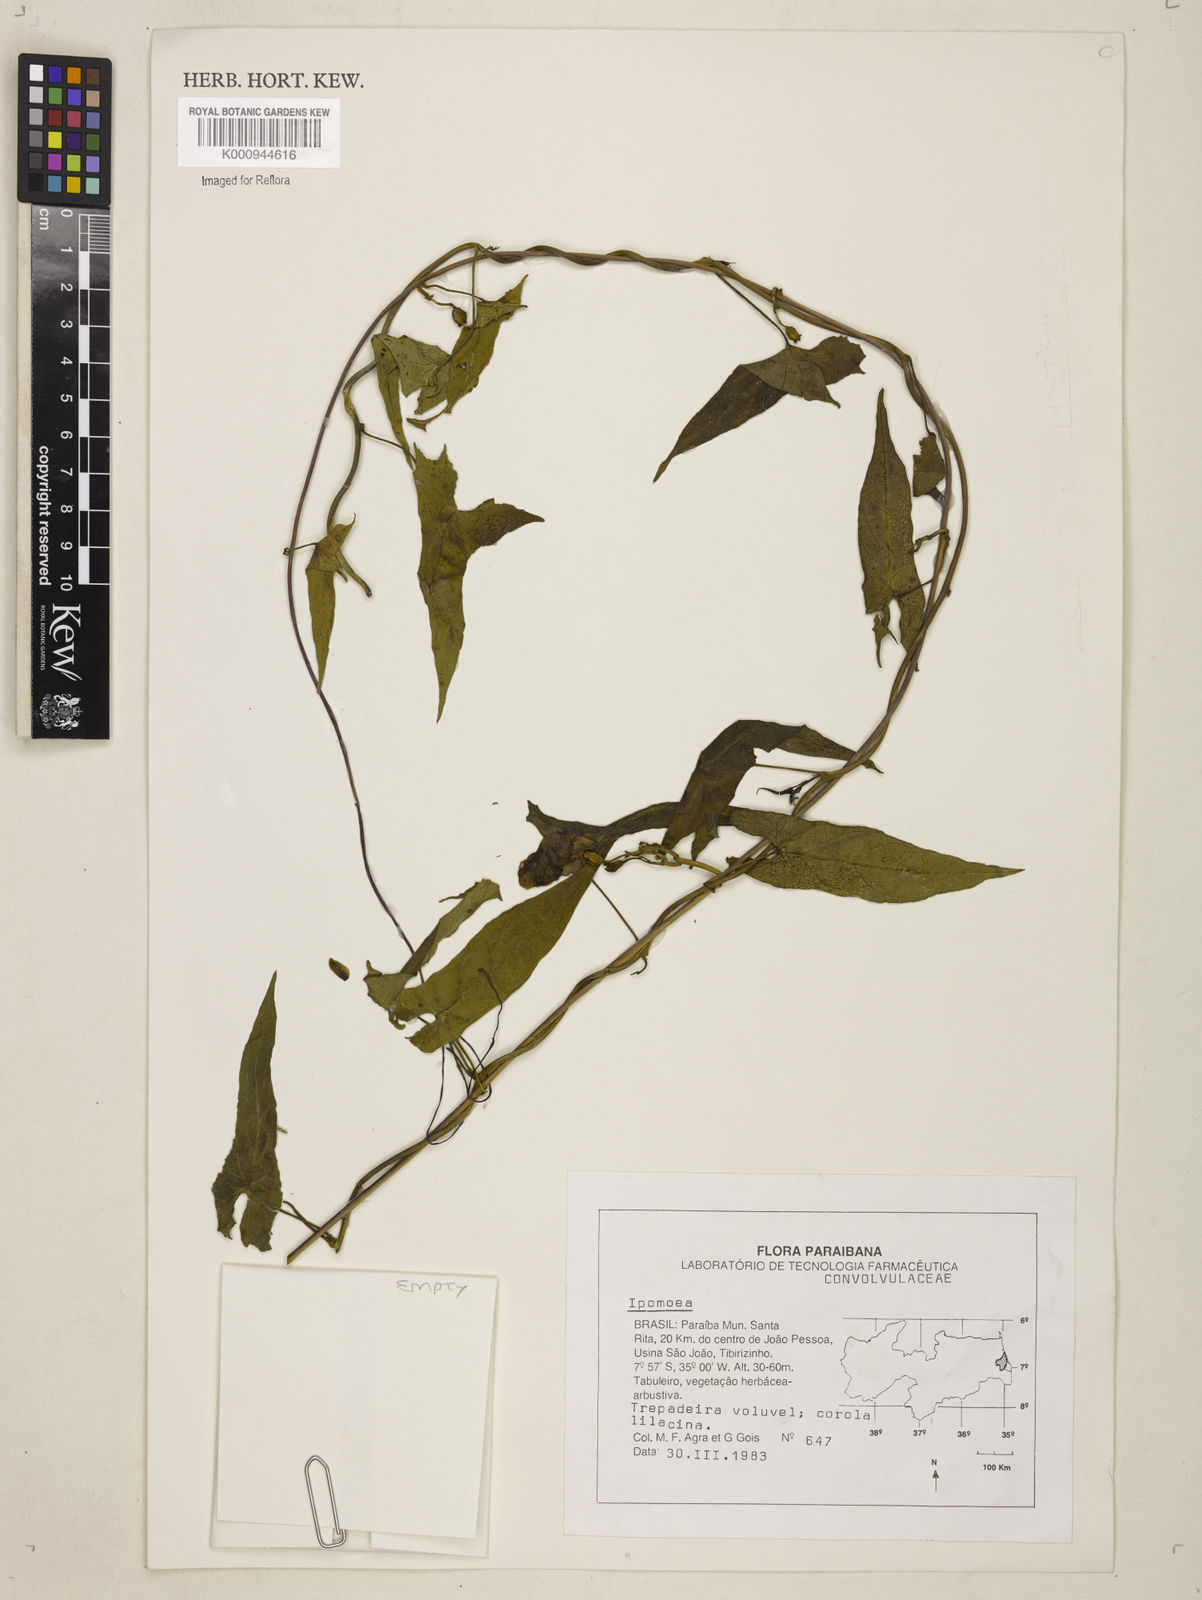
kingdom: Plantae
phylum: Tracheophyta
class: Magnoliopsida
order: Solanales
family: Convolvulaceae
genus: Ipomoea
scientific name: Ipomoea
